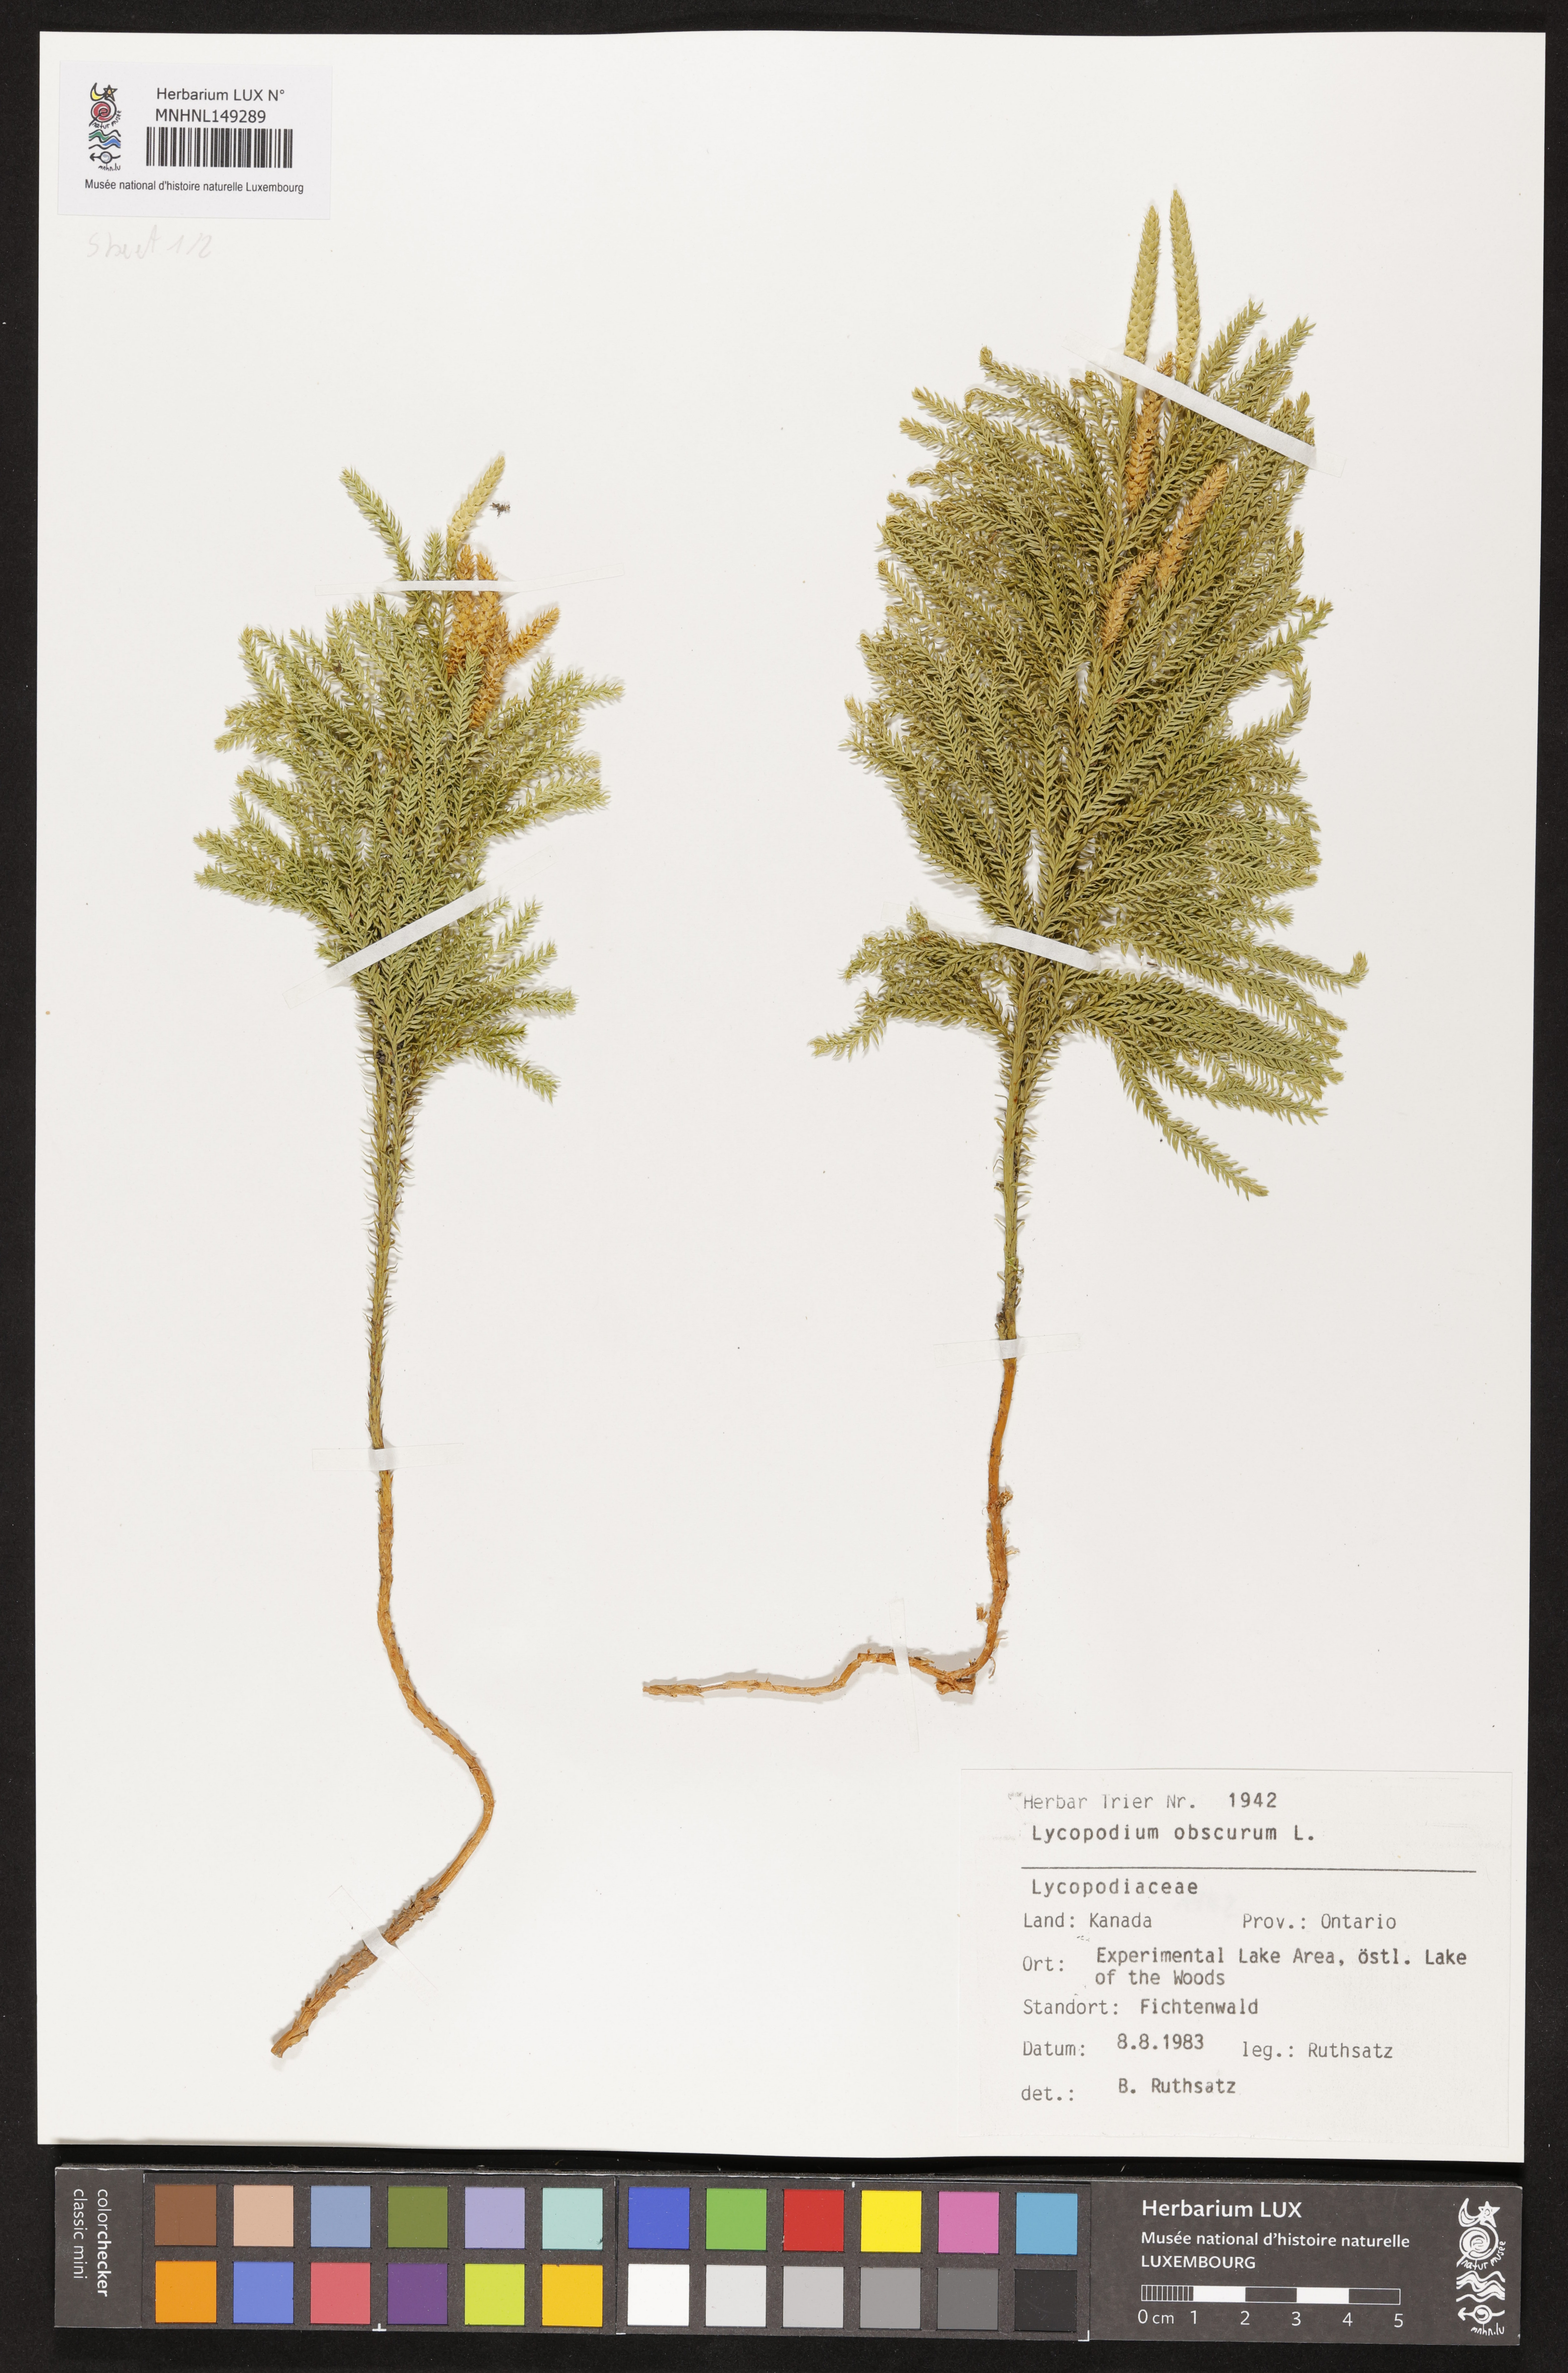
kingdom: Plantae
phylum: Tracheophyta
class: Lycopodiopsida
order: Lycopodiales
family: Lycopodiaceae
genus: Dendrolycopodium
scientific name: Dendrolycopodium obscurum
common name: Common ground-pine
